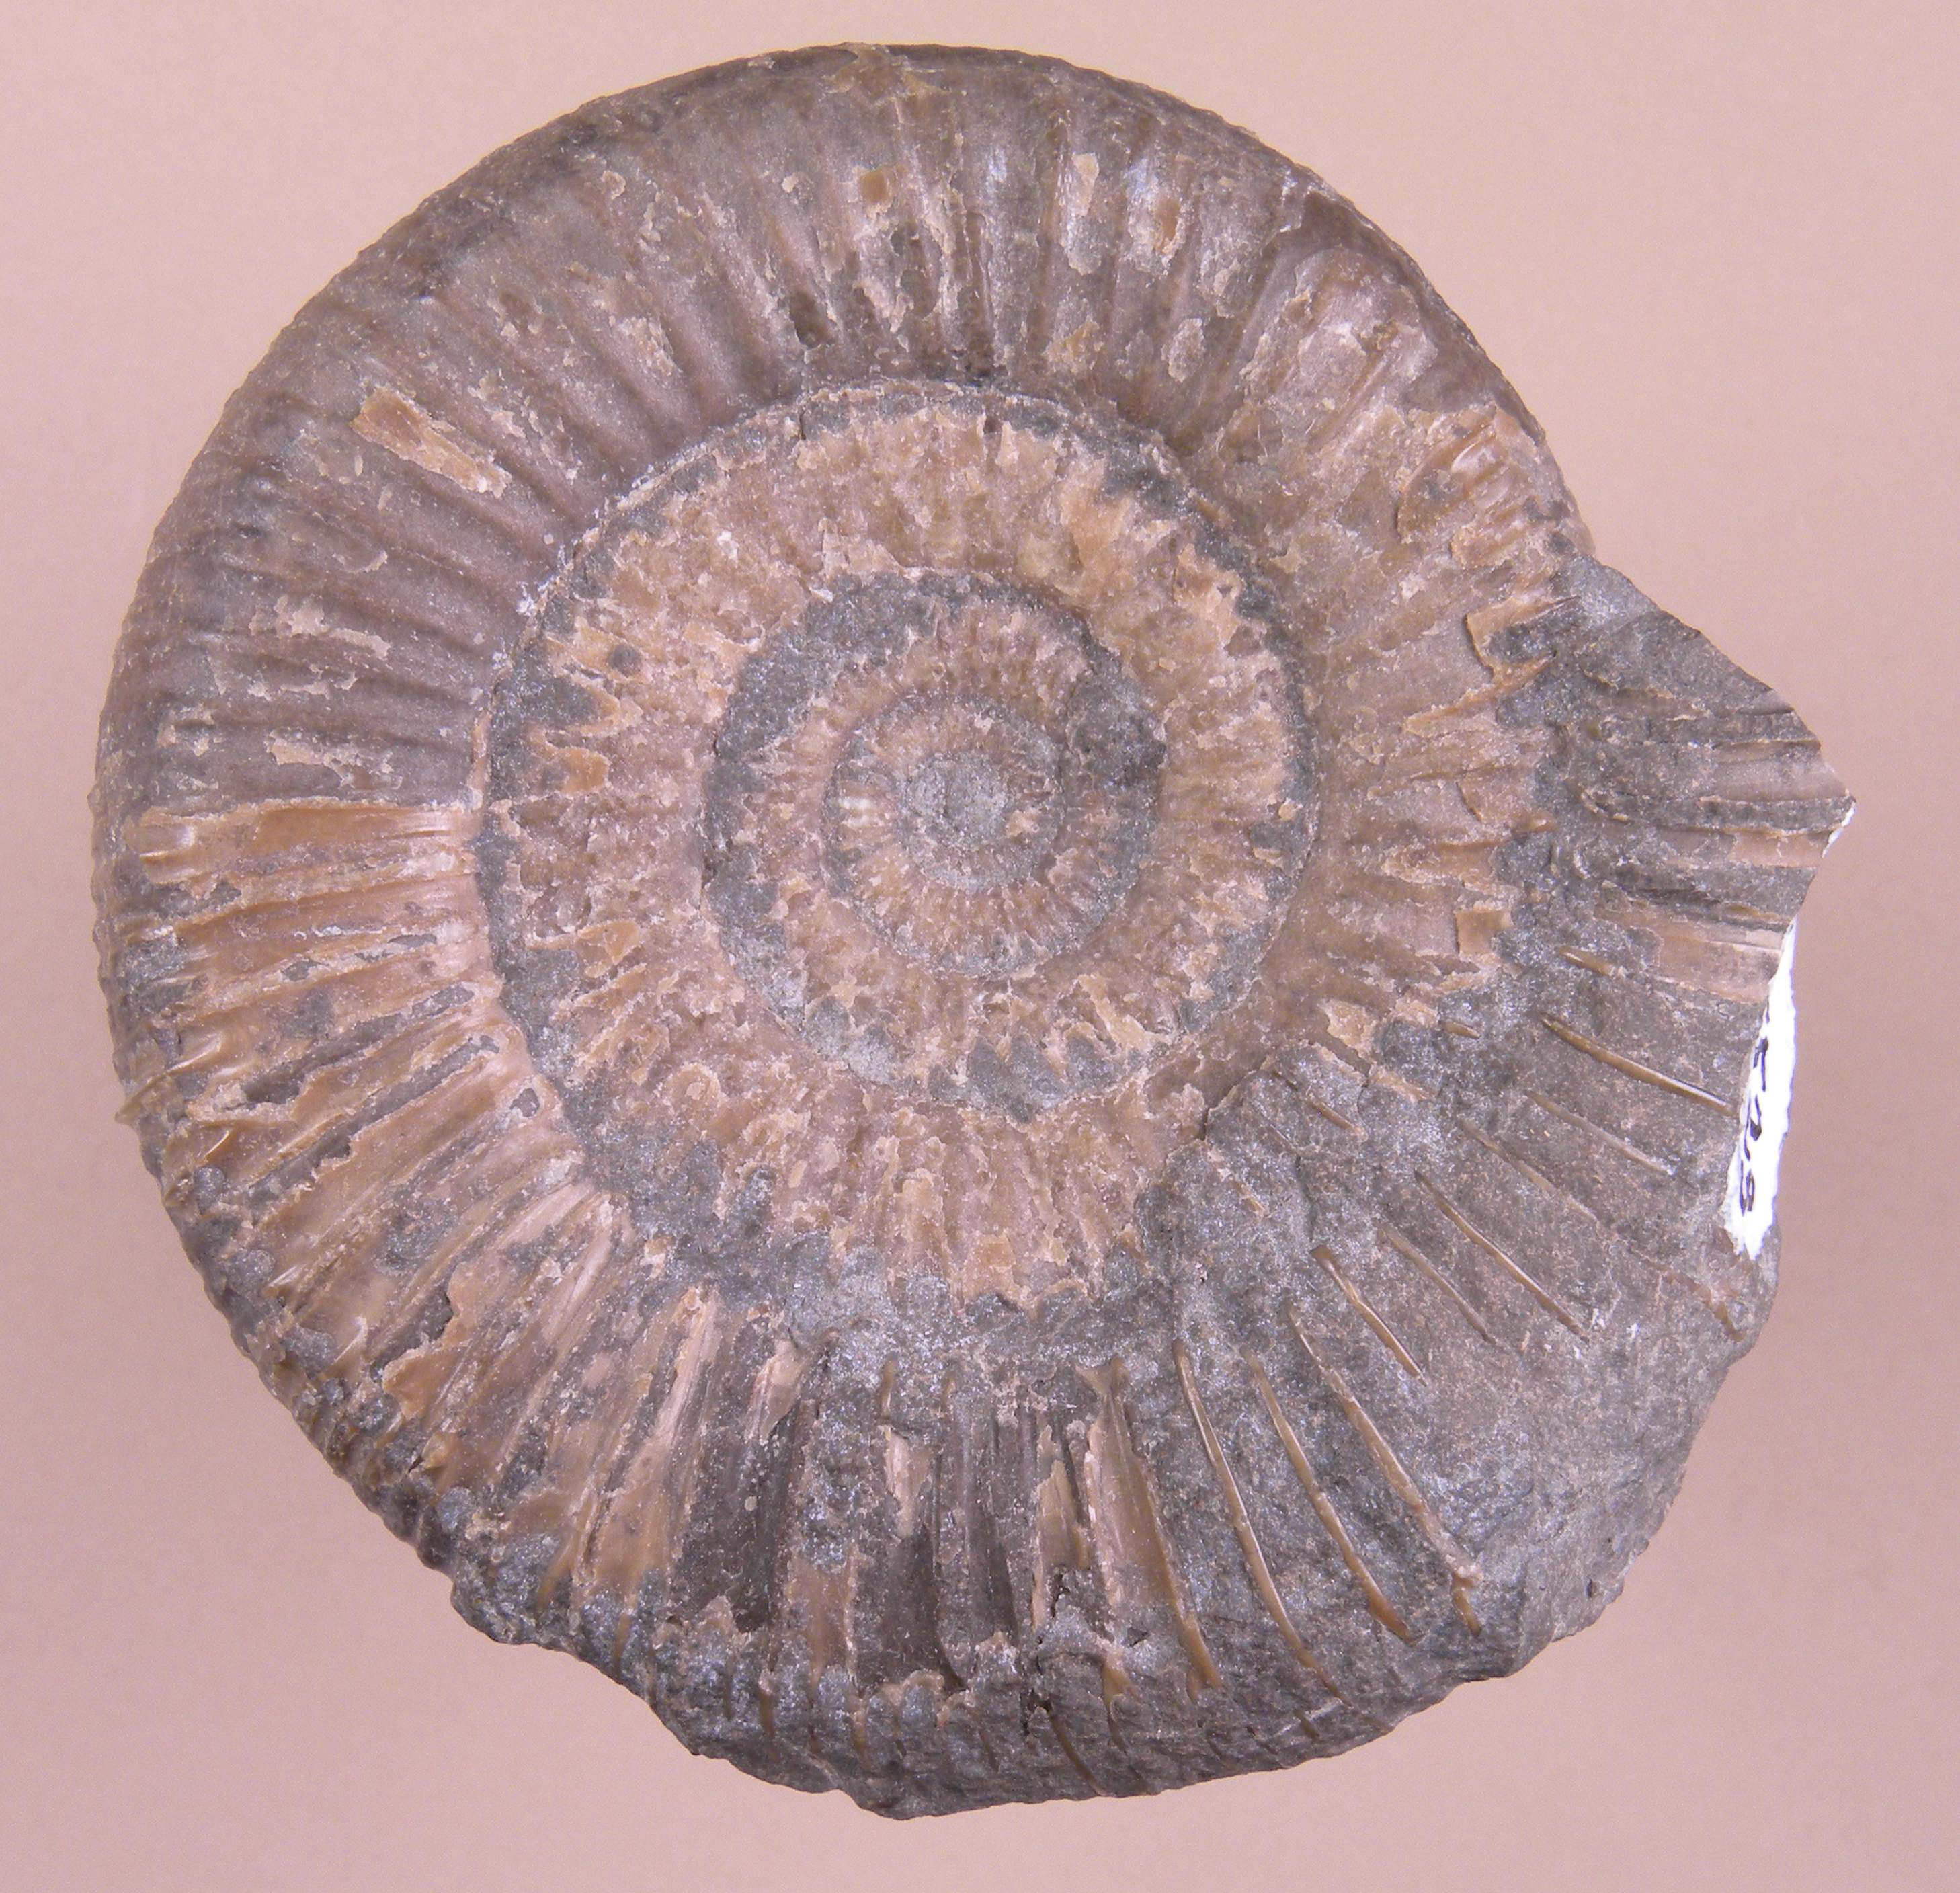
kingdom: Animalia
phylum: Mollusca
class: Cephalopoda
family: Dactylioceratidae
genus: Dactylioceras
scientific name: Dactylioceras
